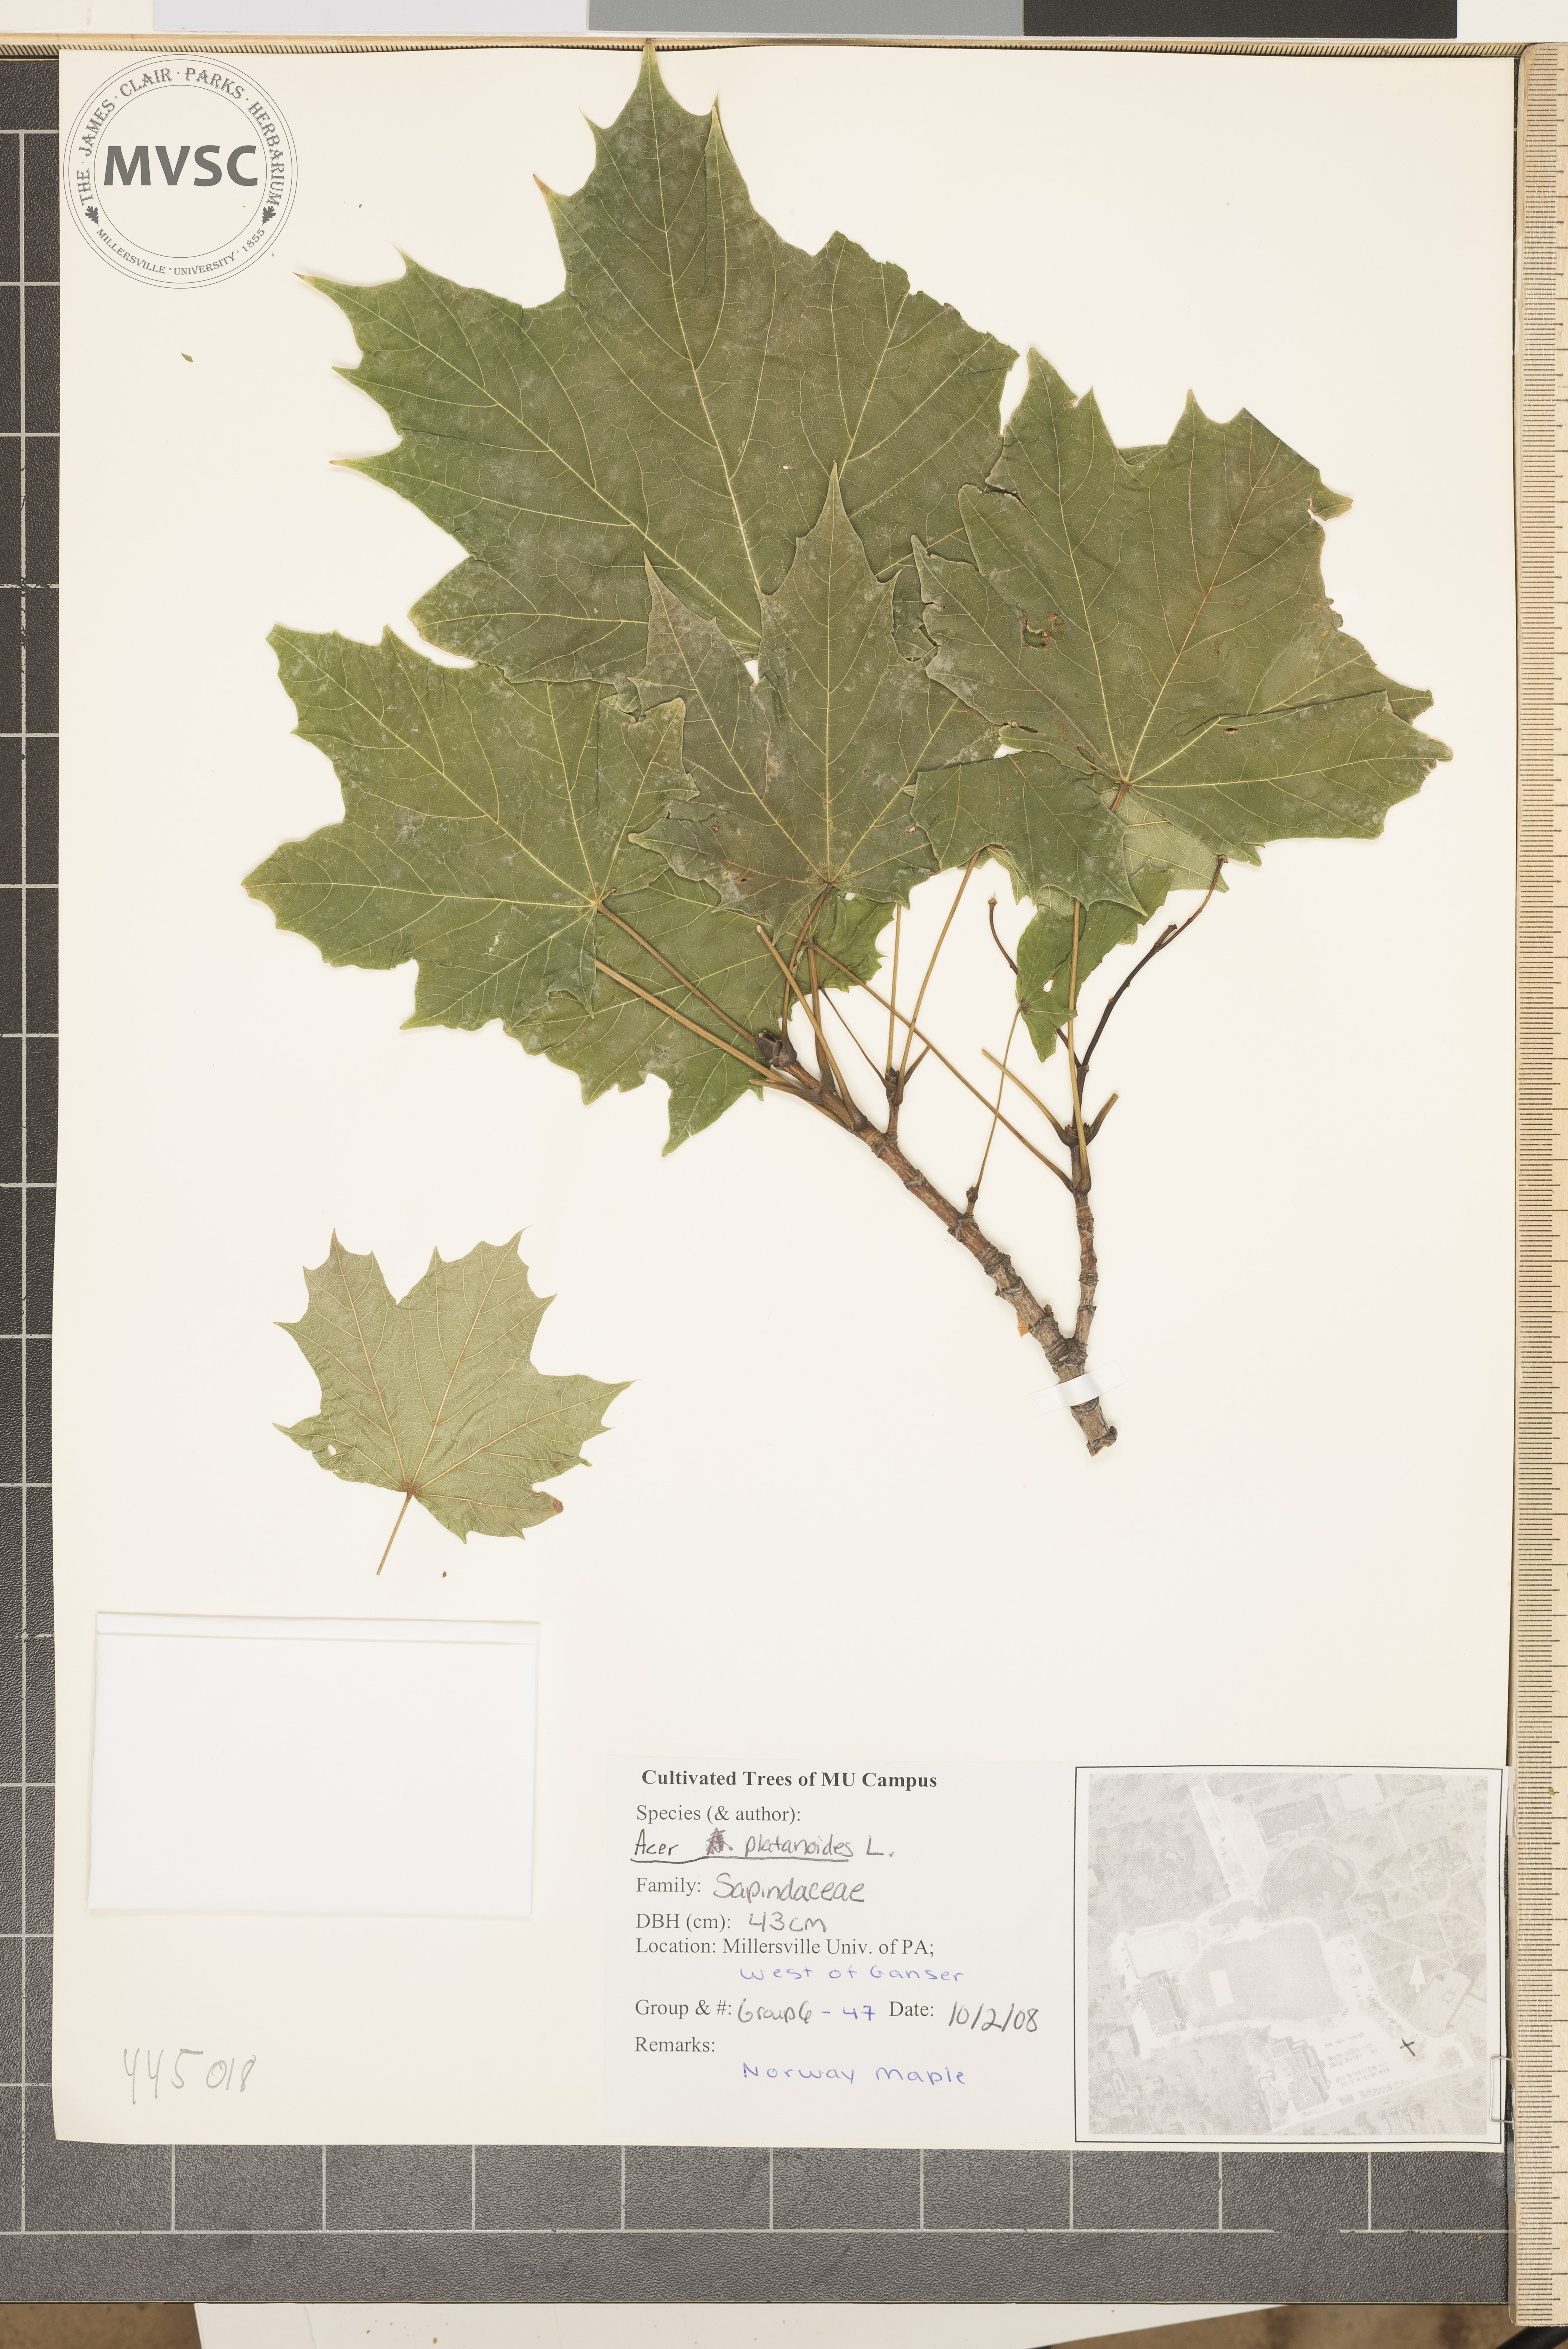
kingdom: Plantae
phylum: Tracheophyta
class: Magnoliopsida
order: Sapindales
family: Sapindaceae
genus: Acer
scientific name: Acer platanoides
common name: Norway maple
